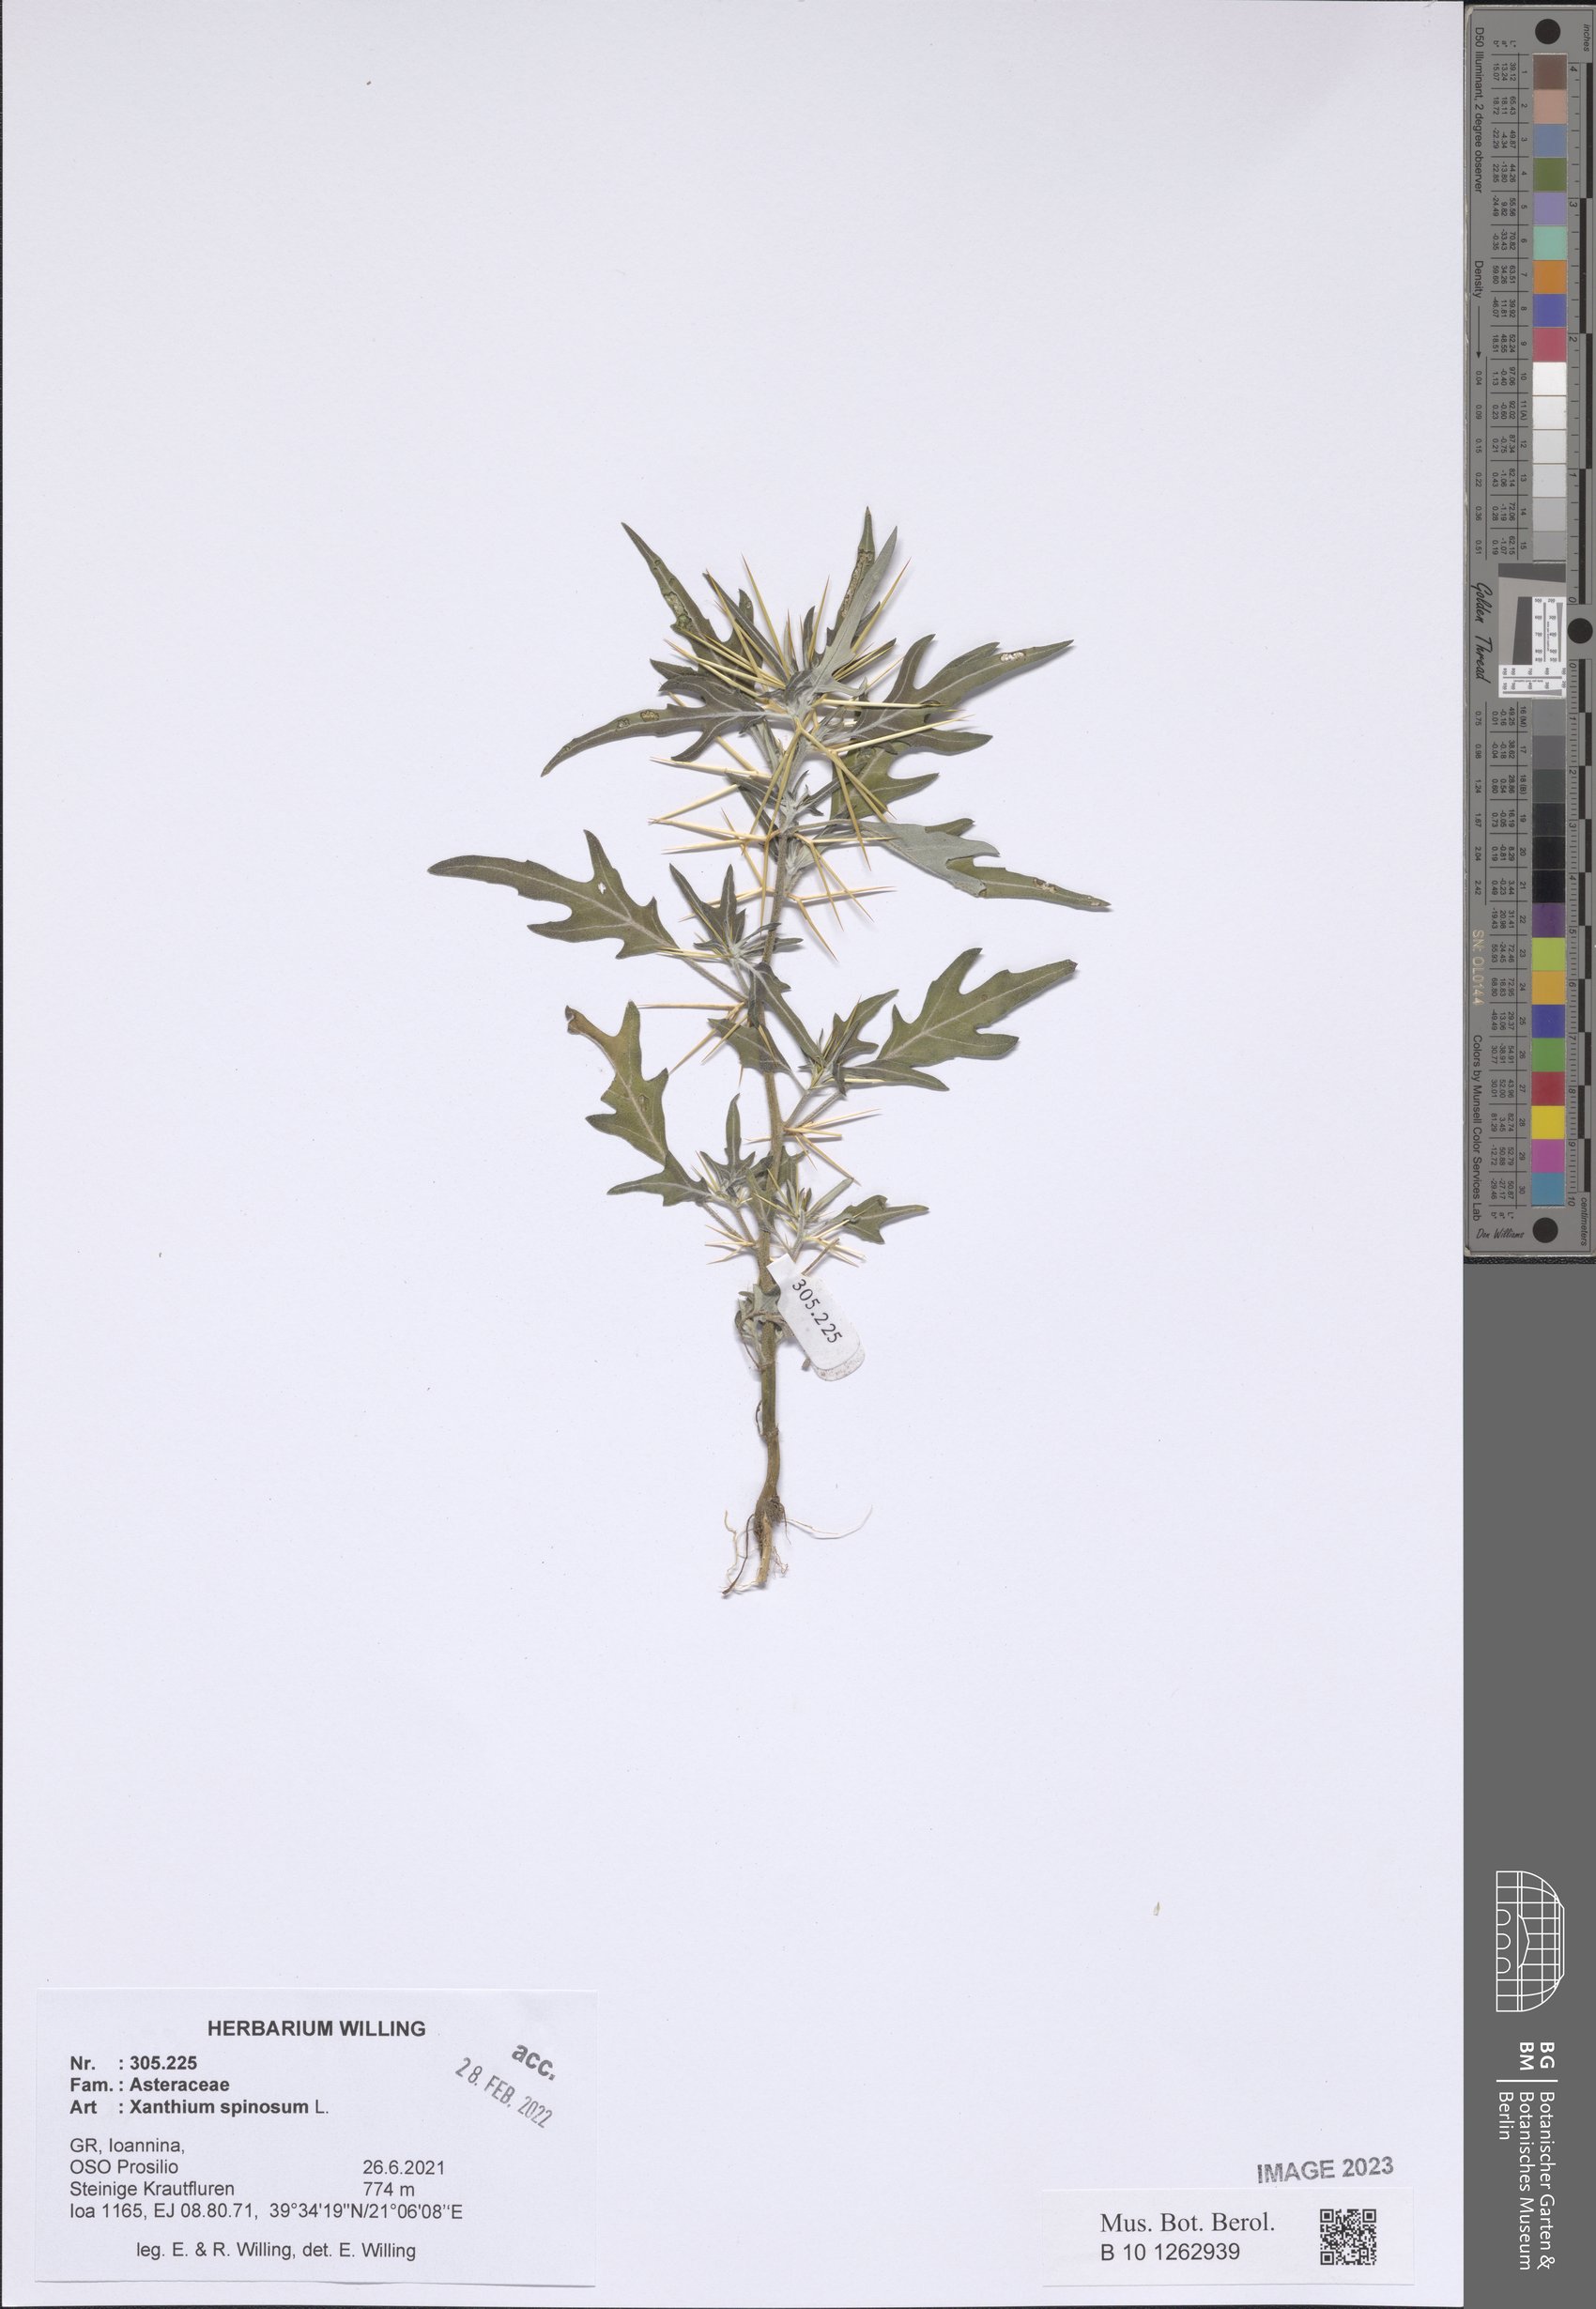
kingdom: Plantae
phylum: Tracheophyta
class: Magnoliopsida
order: Asterales
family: Asteraceae
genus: Xanthium
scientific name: Xanthium spinosum
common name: Spiny cocklebur
